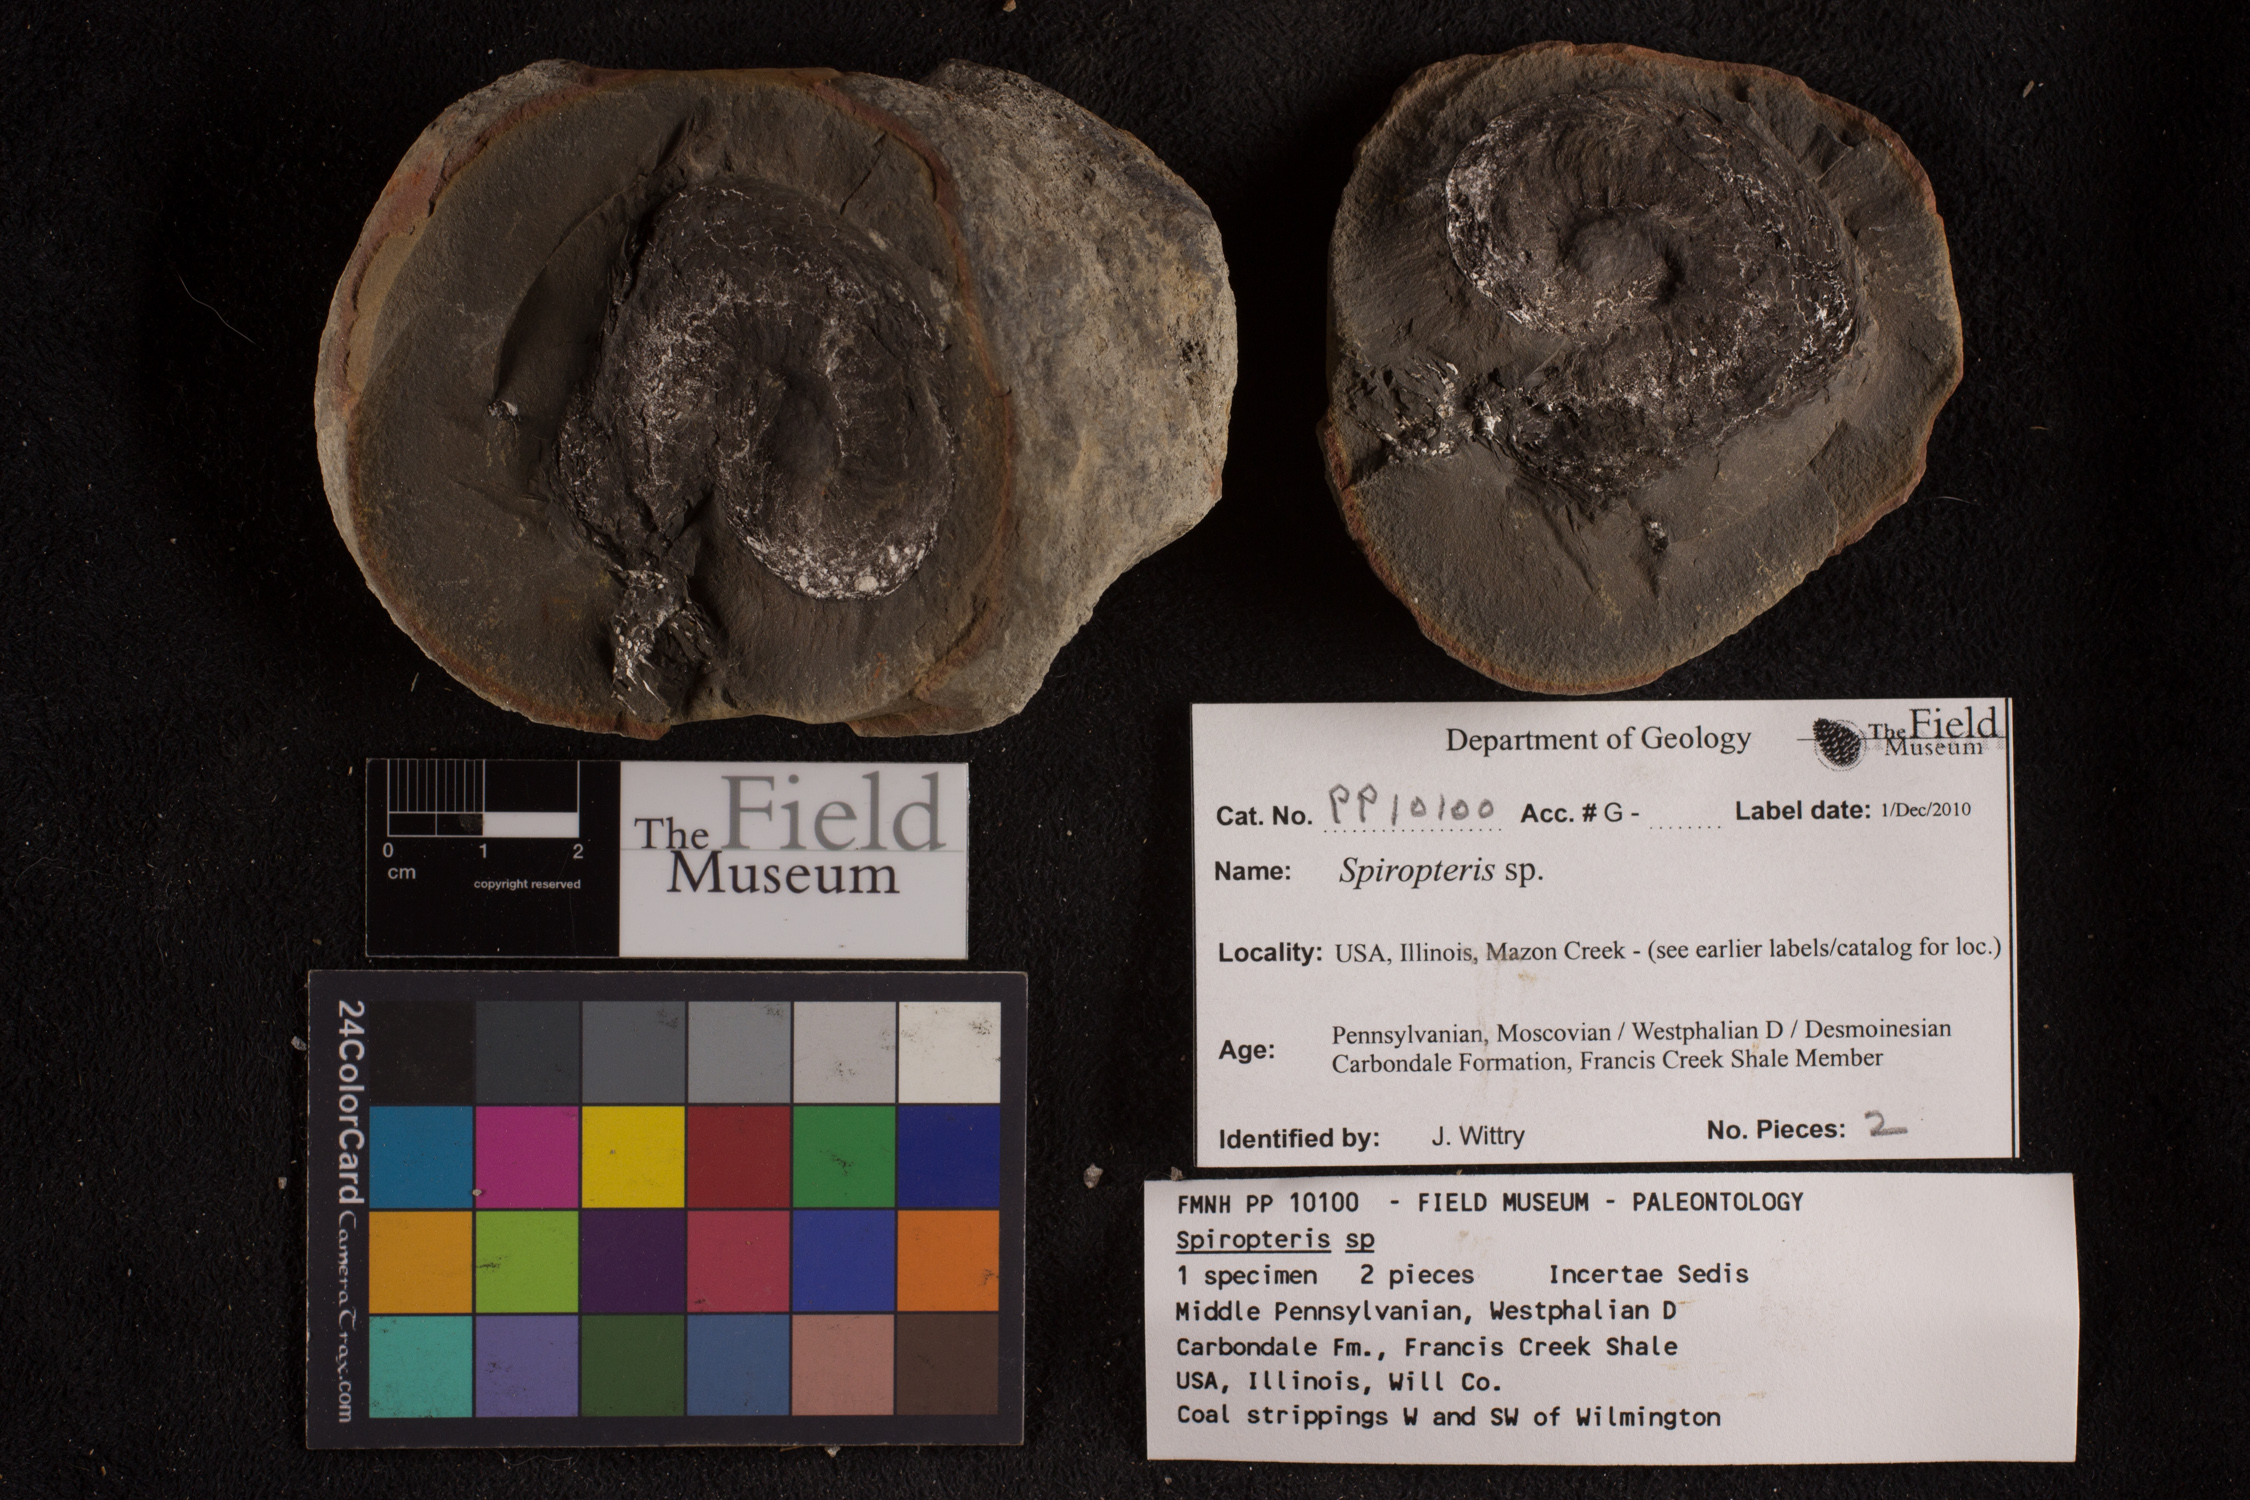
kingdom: Plantae
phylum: Tracheophyta
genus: Spiropteris
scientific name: Spiropteris
